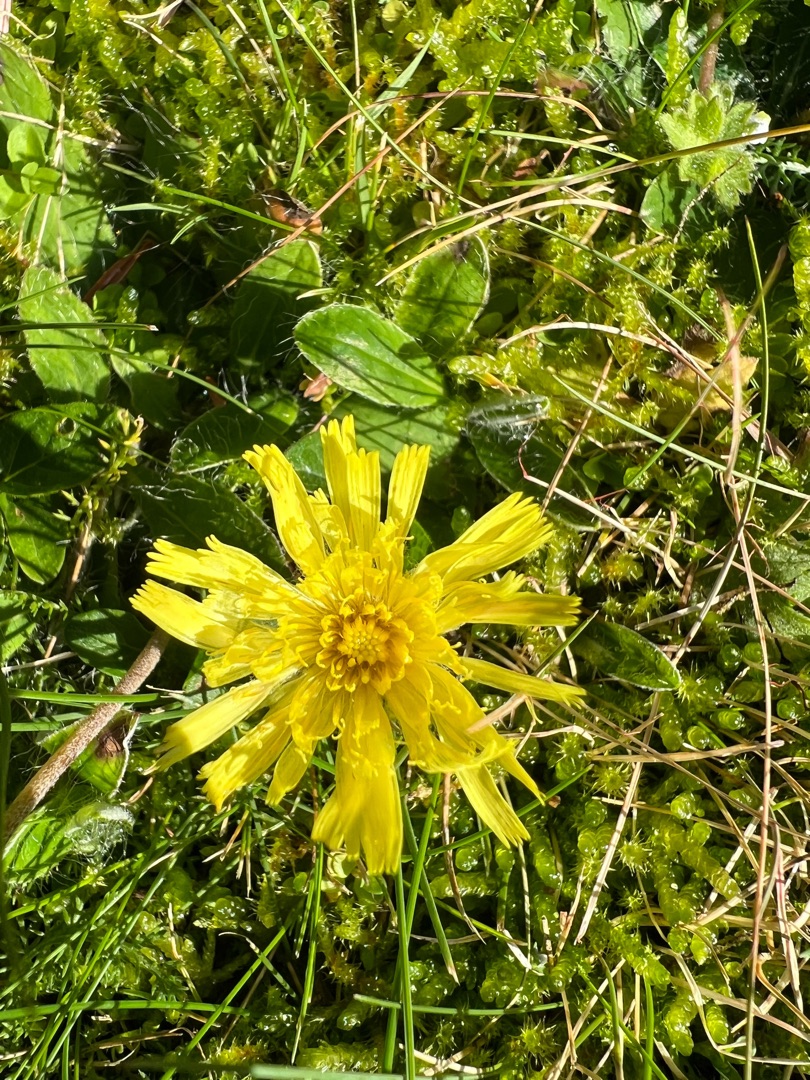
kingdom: Plantae
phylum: Tracheophyta
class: Magnoliopsida
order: Asterales
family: Asteraceae
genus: Pilosella
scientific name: Pilosella officinarum
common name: Håret høgeurt
